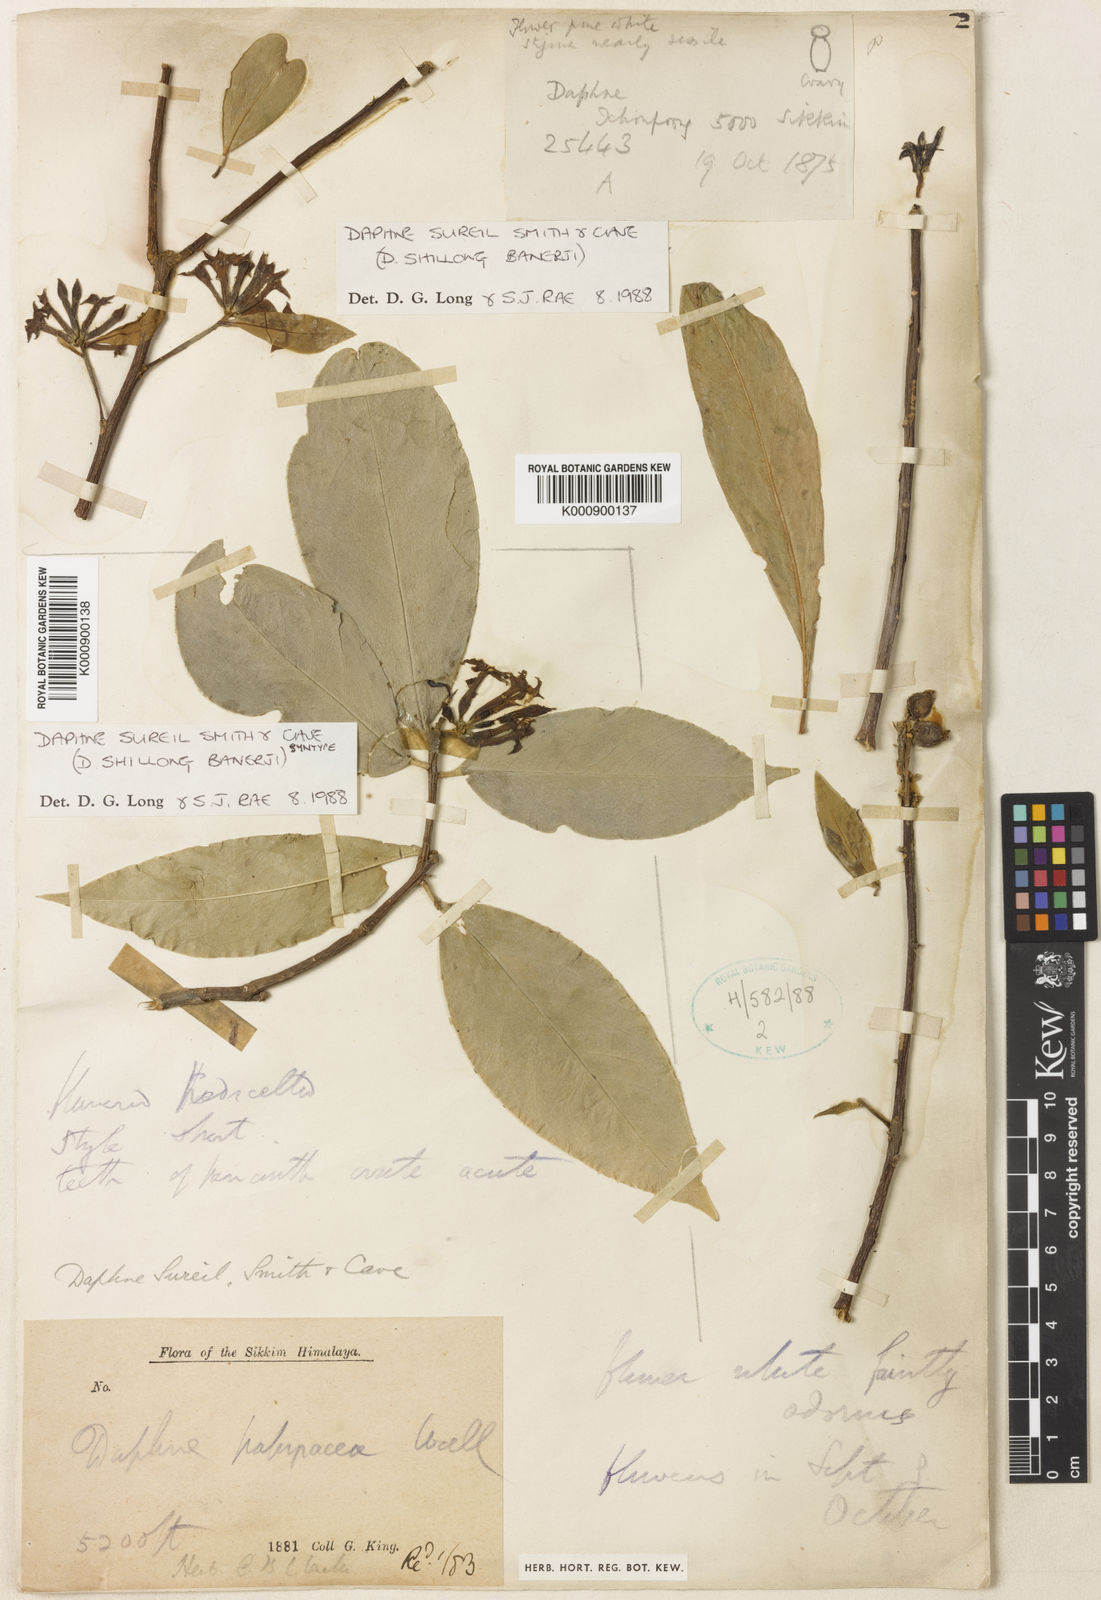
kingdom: Plantae
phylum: Tracheophyta
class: Magnoliopsida
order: Malvales
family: Thymelaeaceae
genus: Daphne
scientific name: Daphne sureil
